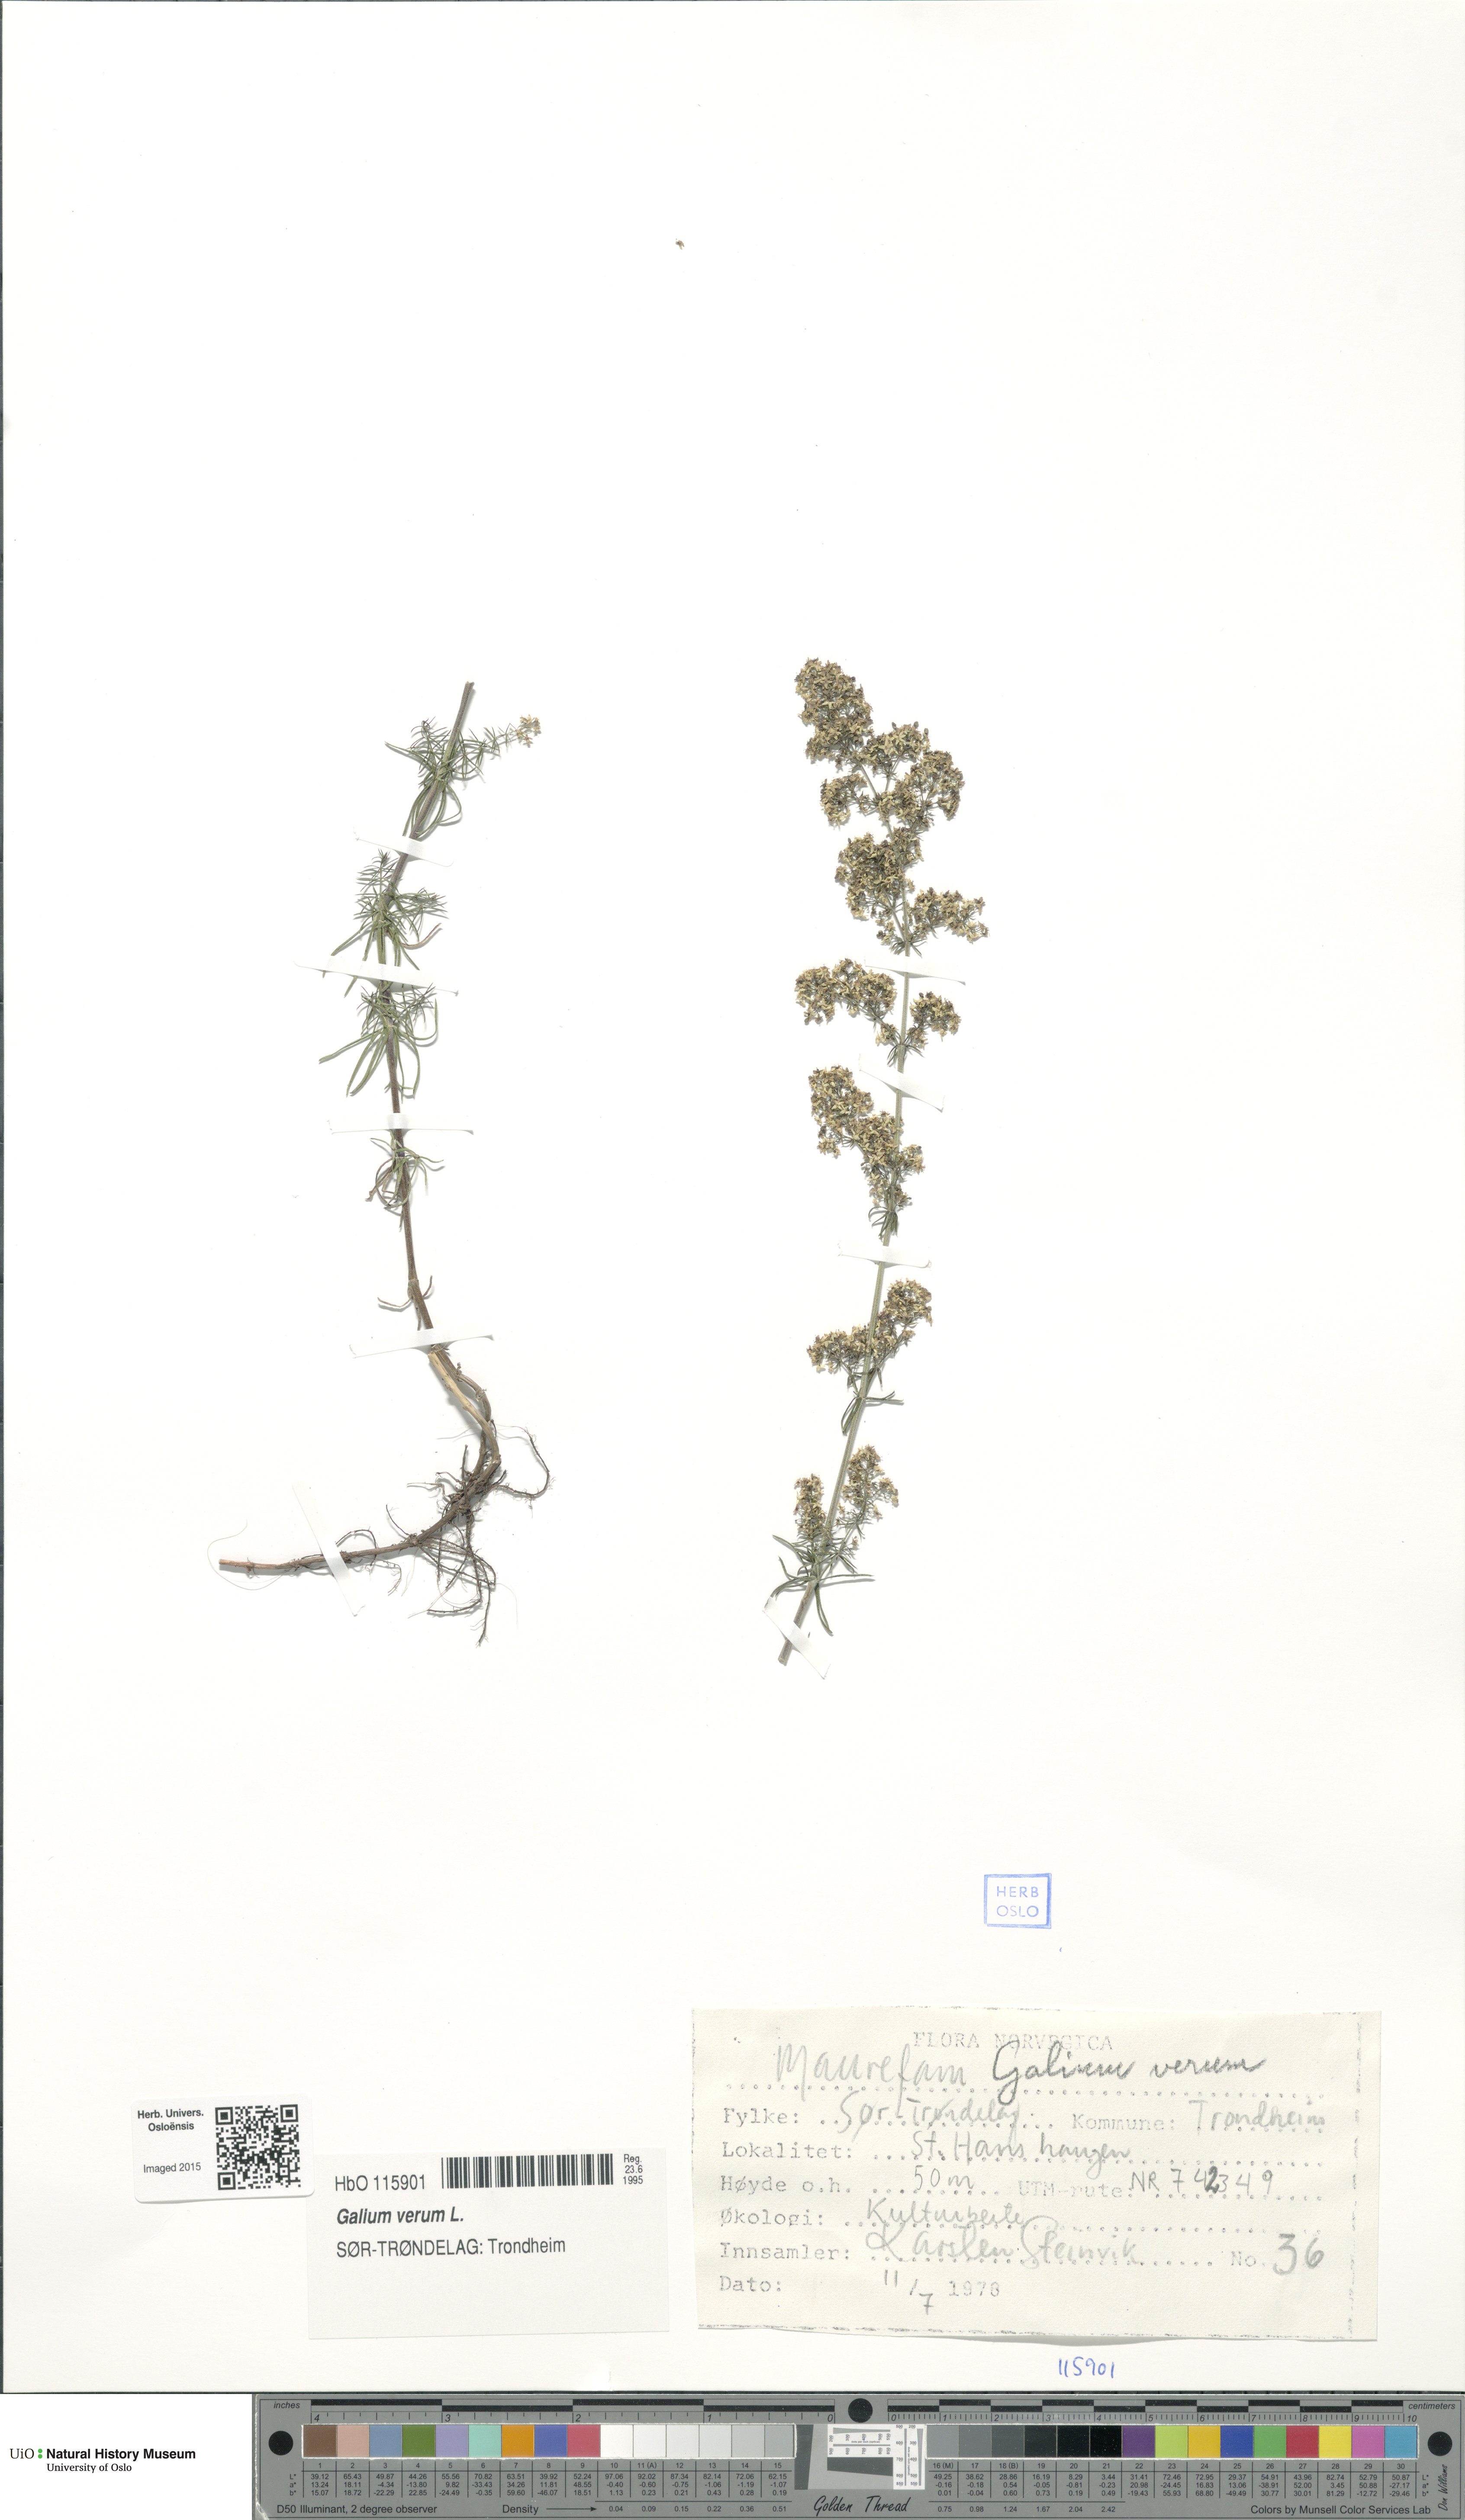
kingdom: Plantae
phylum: Tracheophyta
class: Magnoliopsida
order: Gentianales
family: Rubiaceae
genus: Galium
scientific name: Galium verum
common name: Lady's bedstraw
